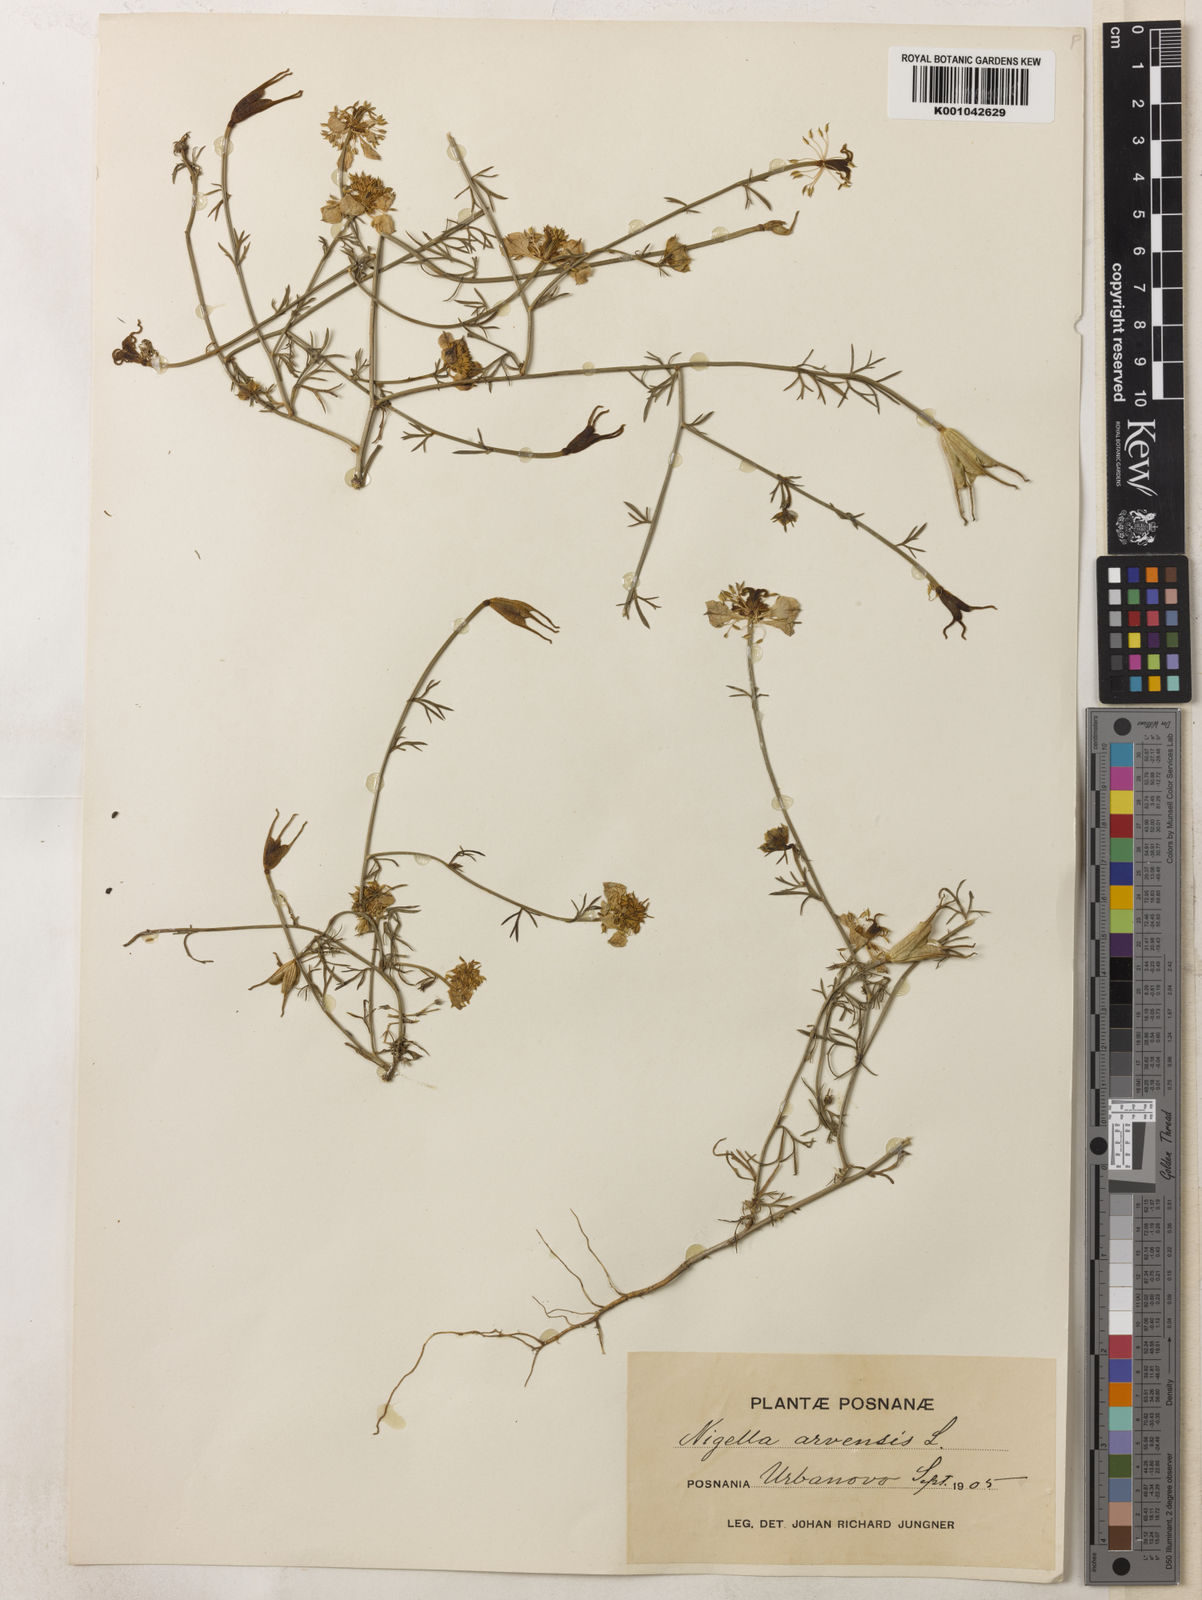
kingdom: Plantae
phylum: Tracheophyta
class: Magnoliopsida
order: Ranunculales
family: Ranunculaceae
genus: Nigella
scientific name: Nigella arvensis
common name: Wild fennel-flower
